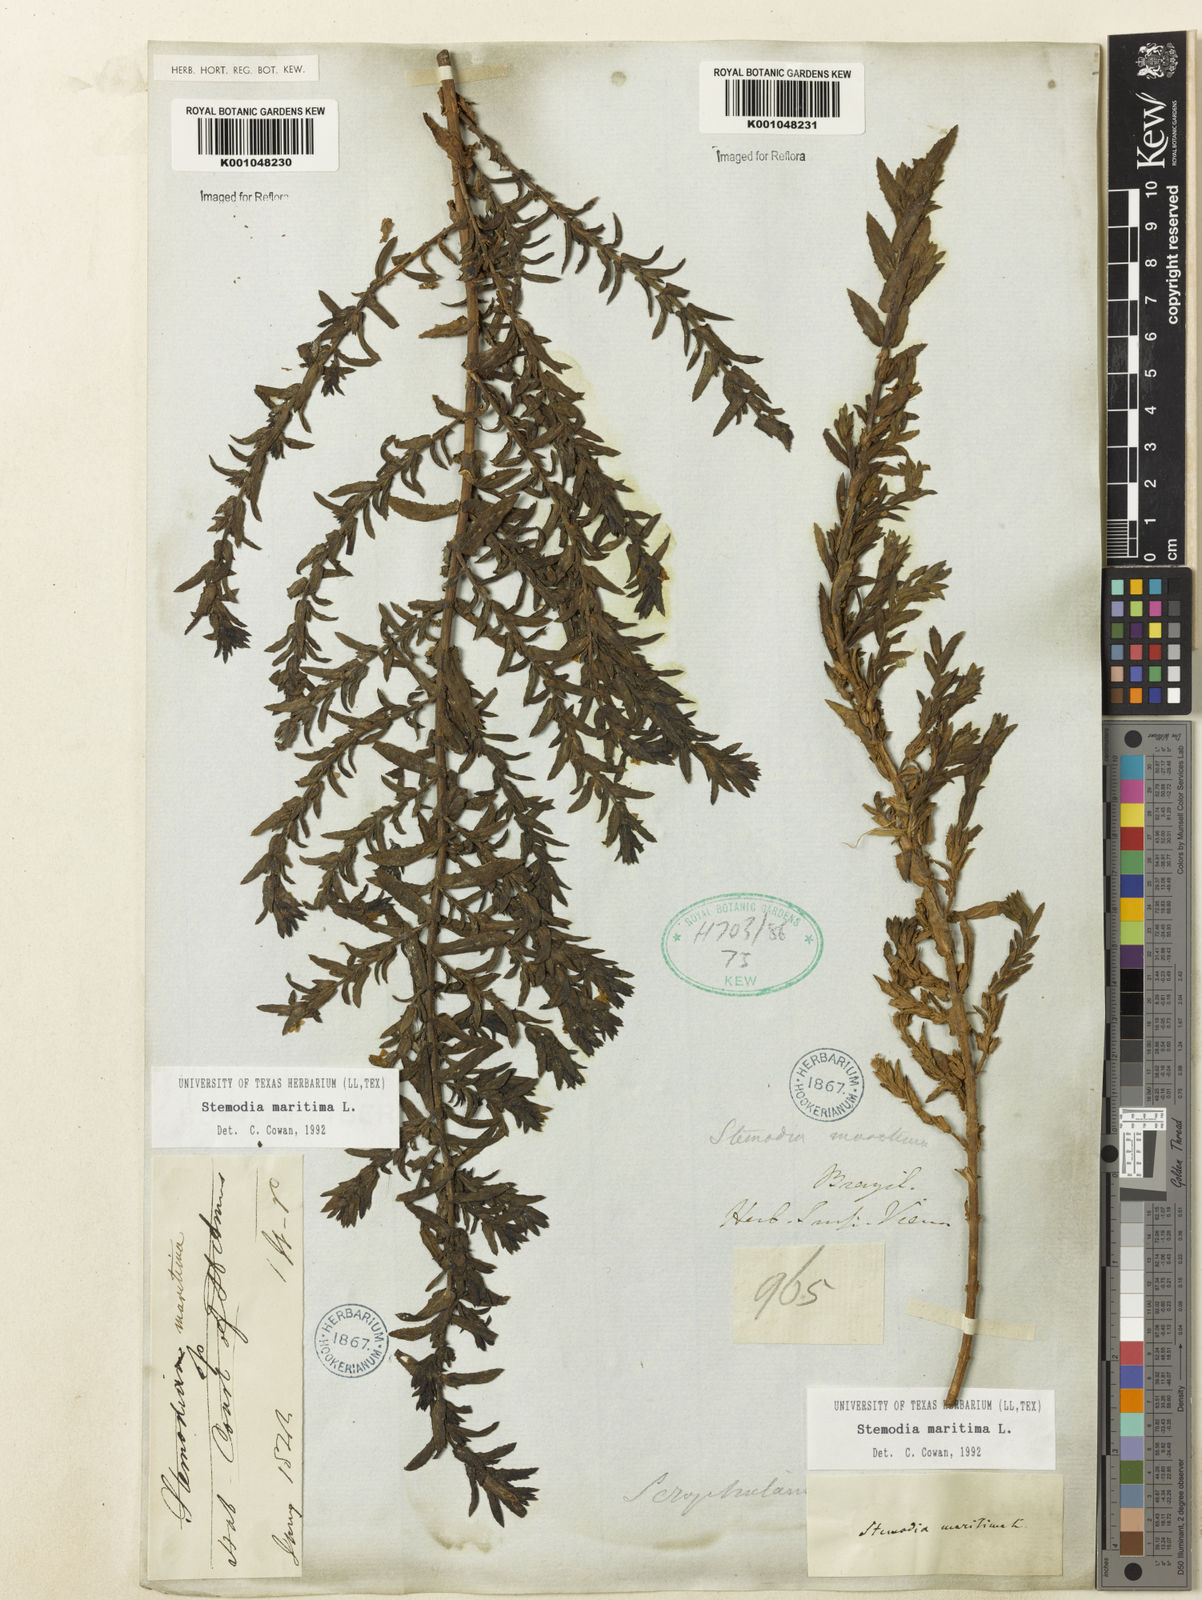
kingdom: Plantae
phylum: Tracheophyta
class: Magnoliopsida
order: Lamiales
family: Plantaginaceae
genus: Stemodia
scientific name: Stemodia maritima
